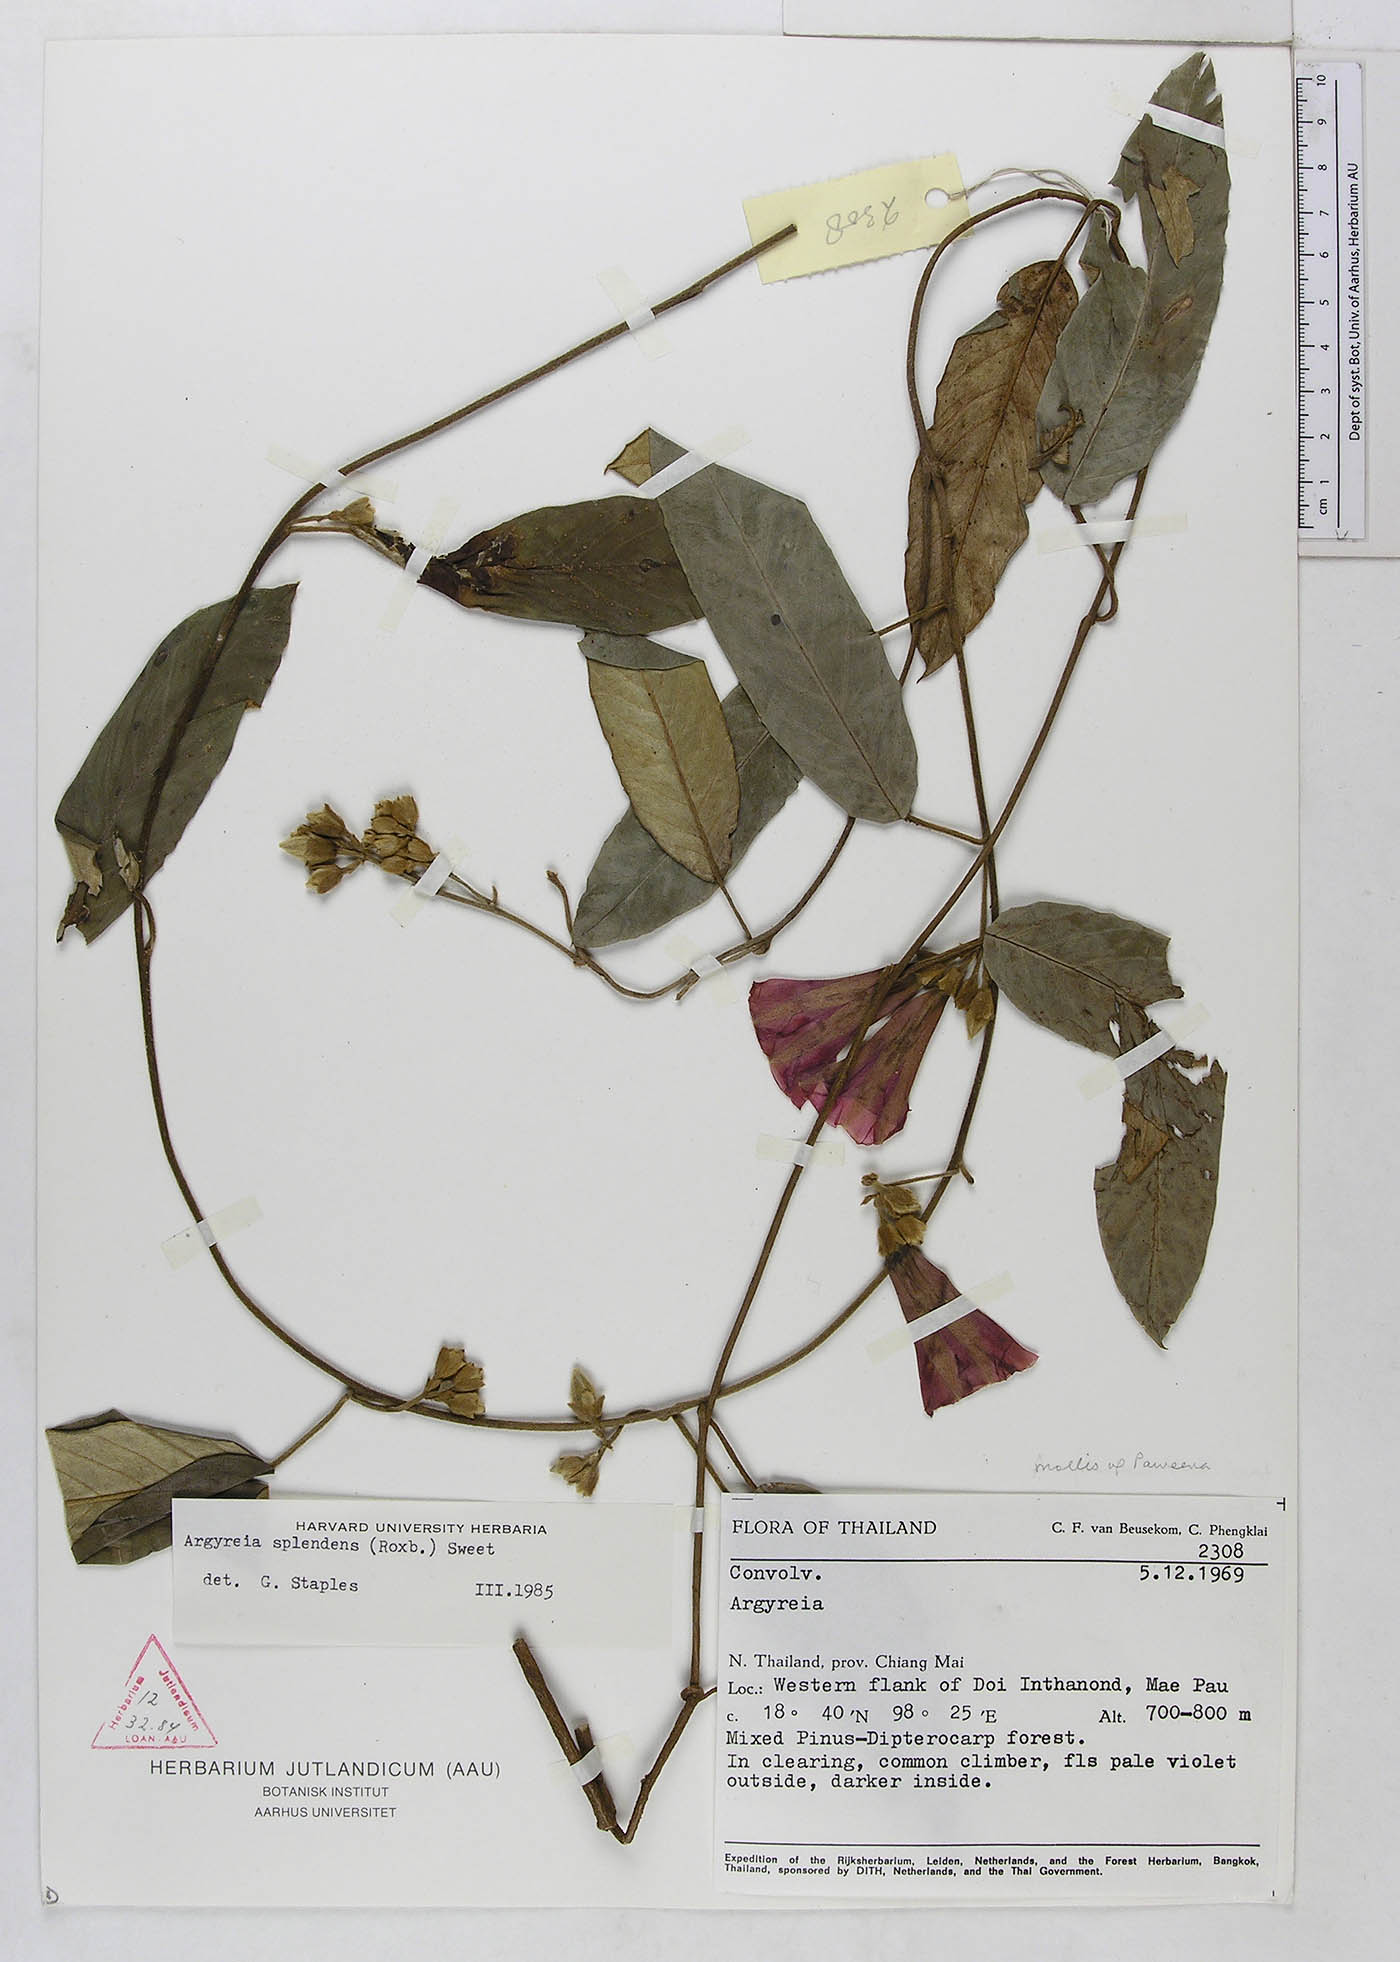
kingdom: Plantae
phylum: Tracheophyta
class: Magnoliopsida
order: Solanales
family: Convolvulaceae
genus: Argyreia
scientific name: Argyreia
